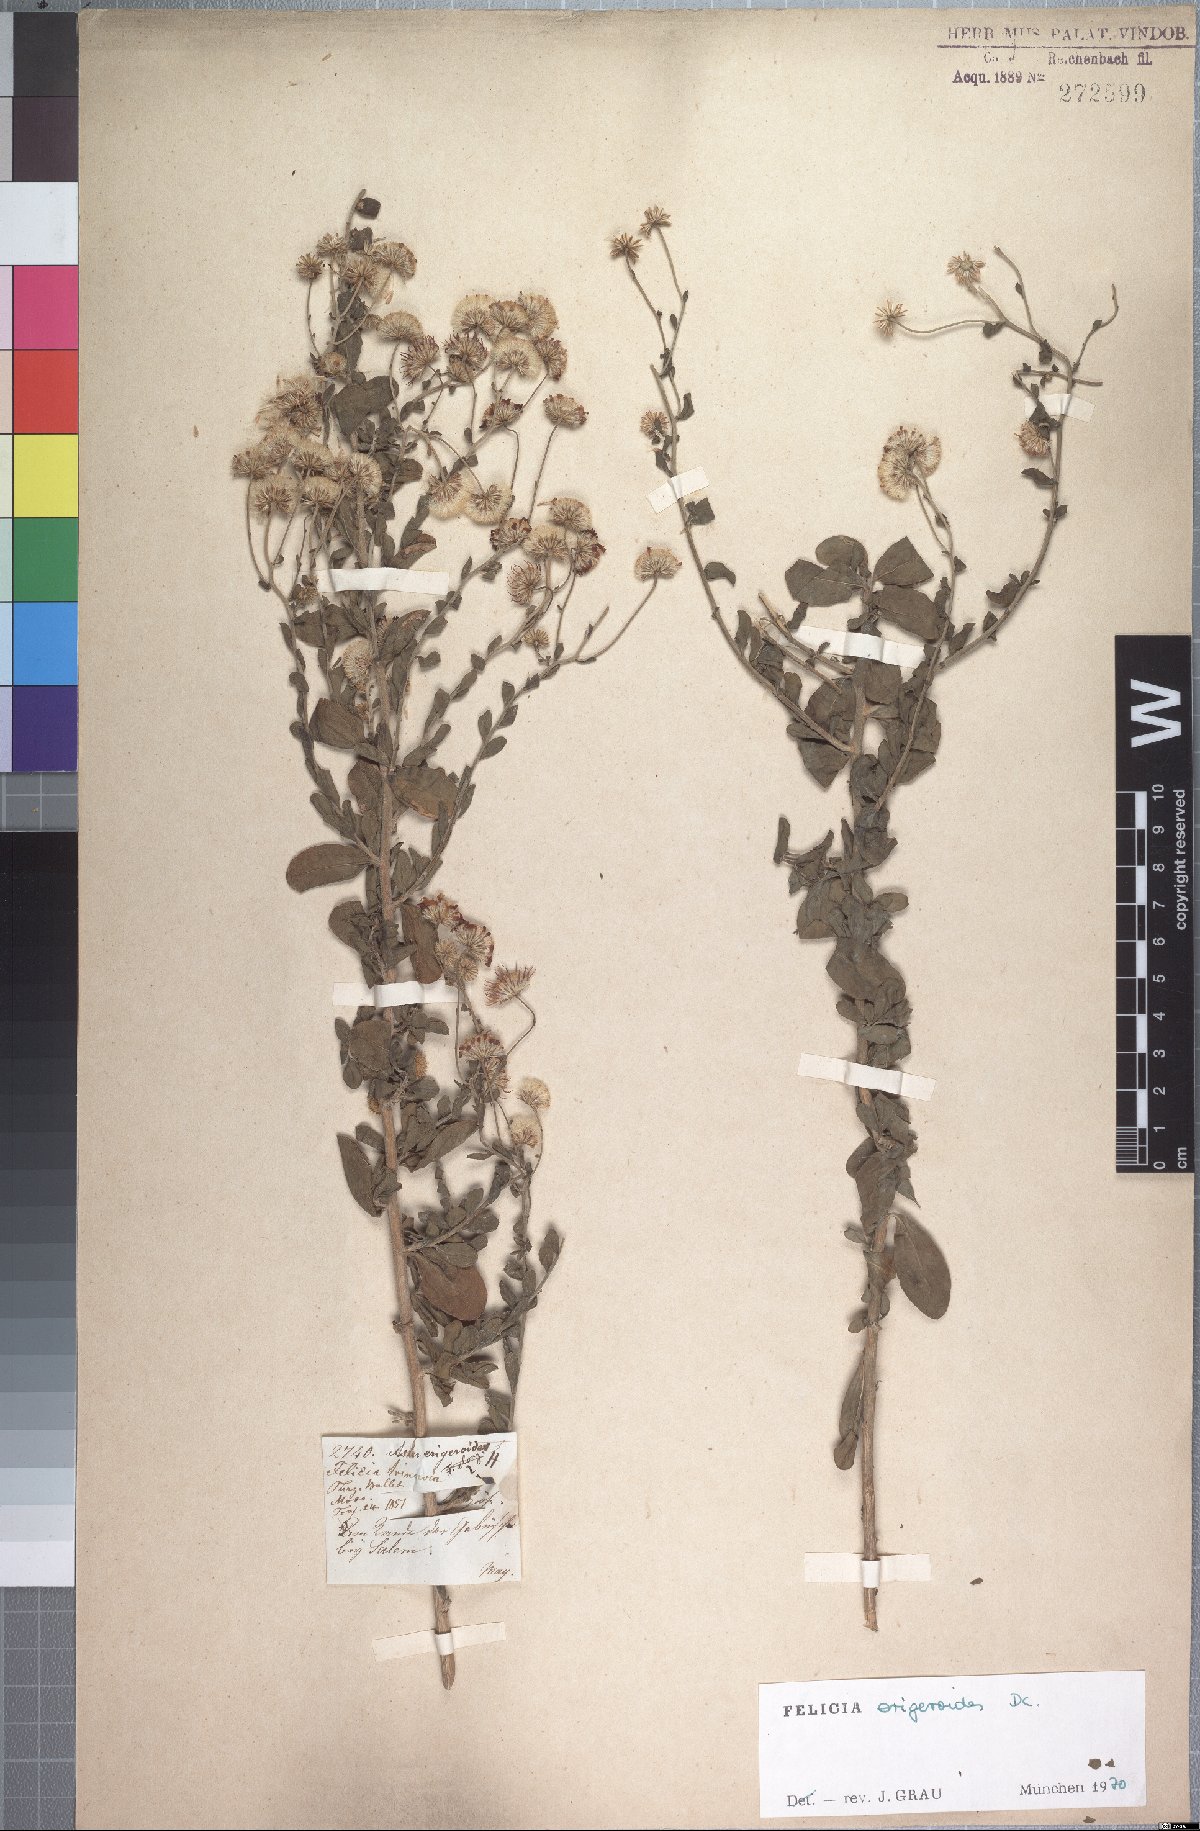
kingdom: Plantae
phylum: Tracheophyta
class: Magnoliopsida
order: Asterales
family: Asteraceae
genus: Felicia
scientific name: Felicia erigeroides
